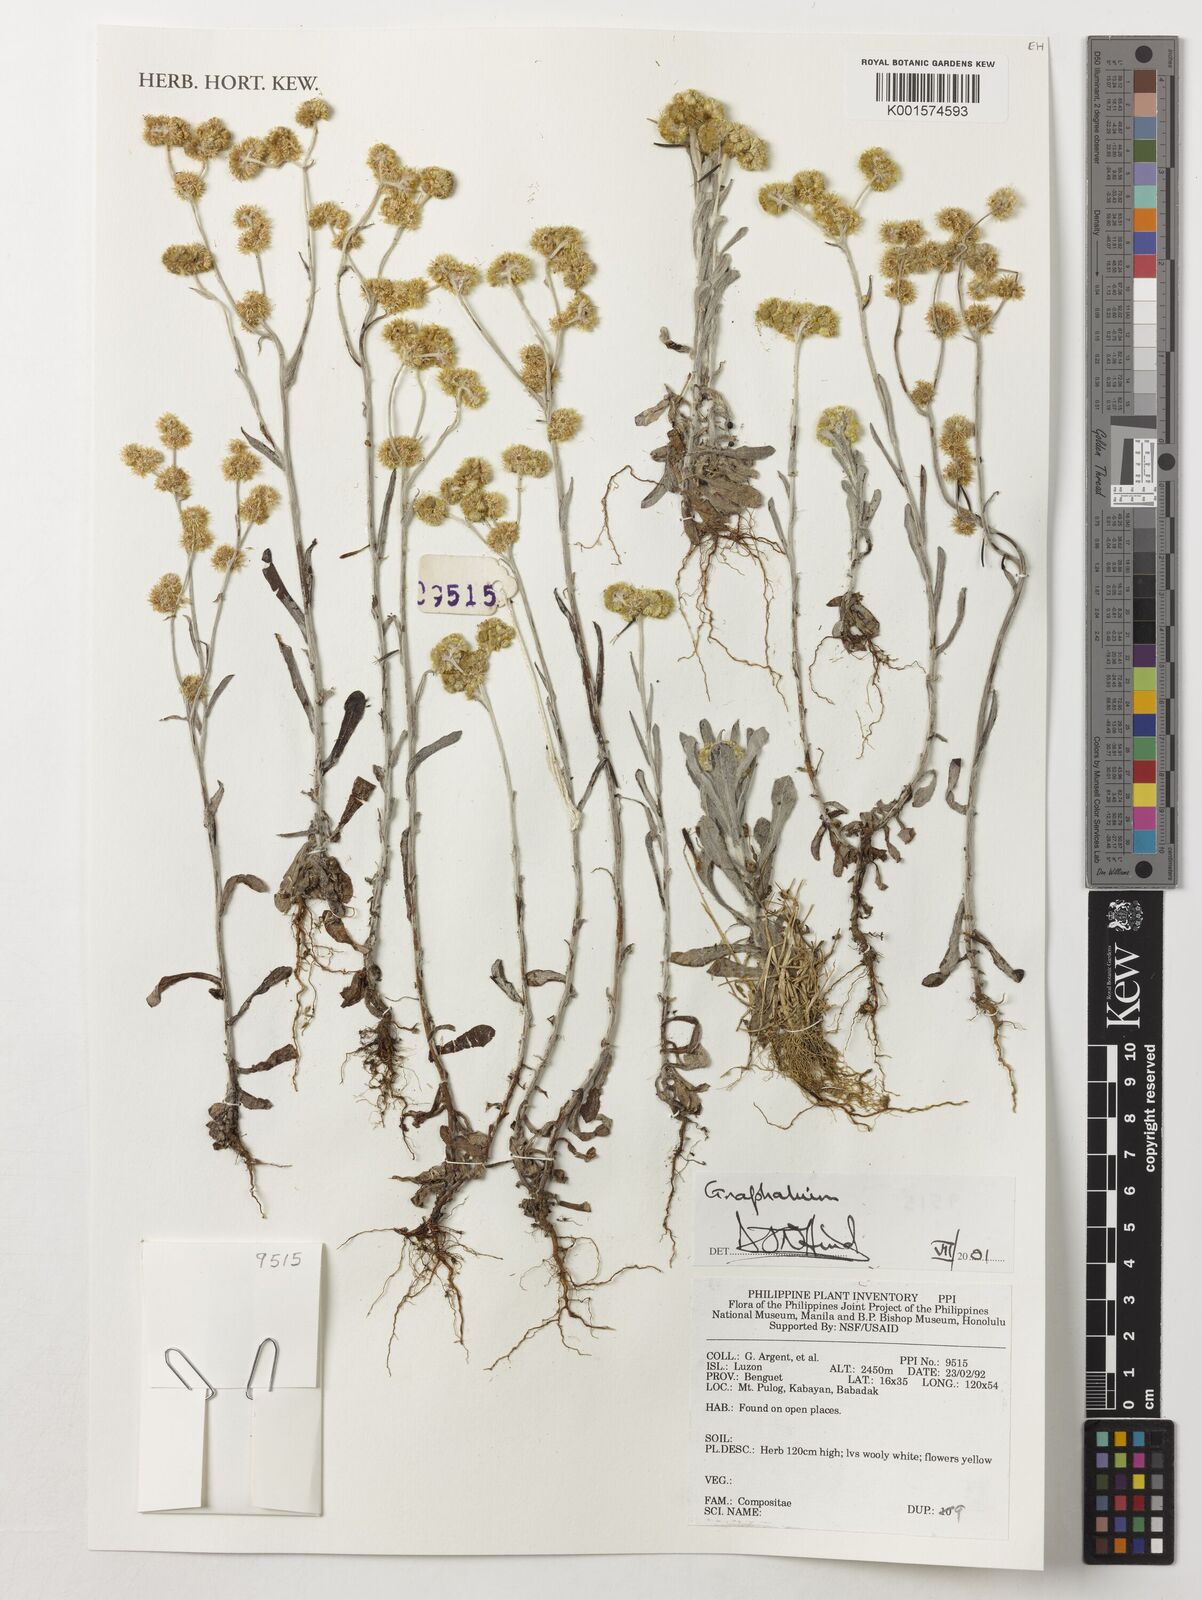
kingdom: Plantae
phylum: Tracheophyta
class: Magnoliopsida
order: Asterales
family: Asteraceae
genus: Gnaphalium
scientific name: Gnaphalium
